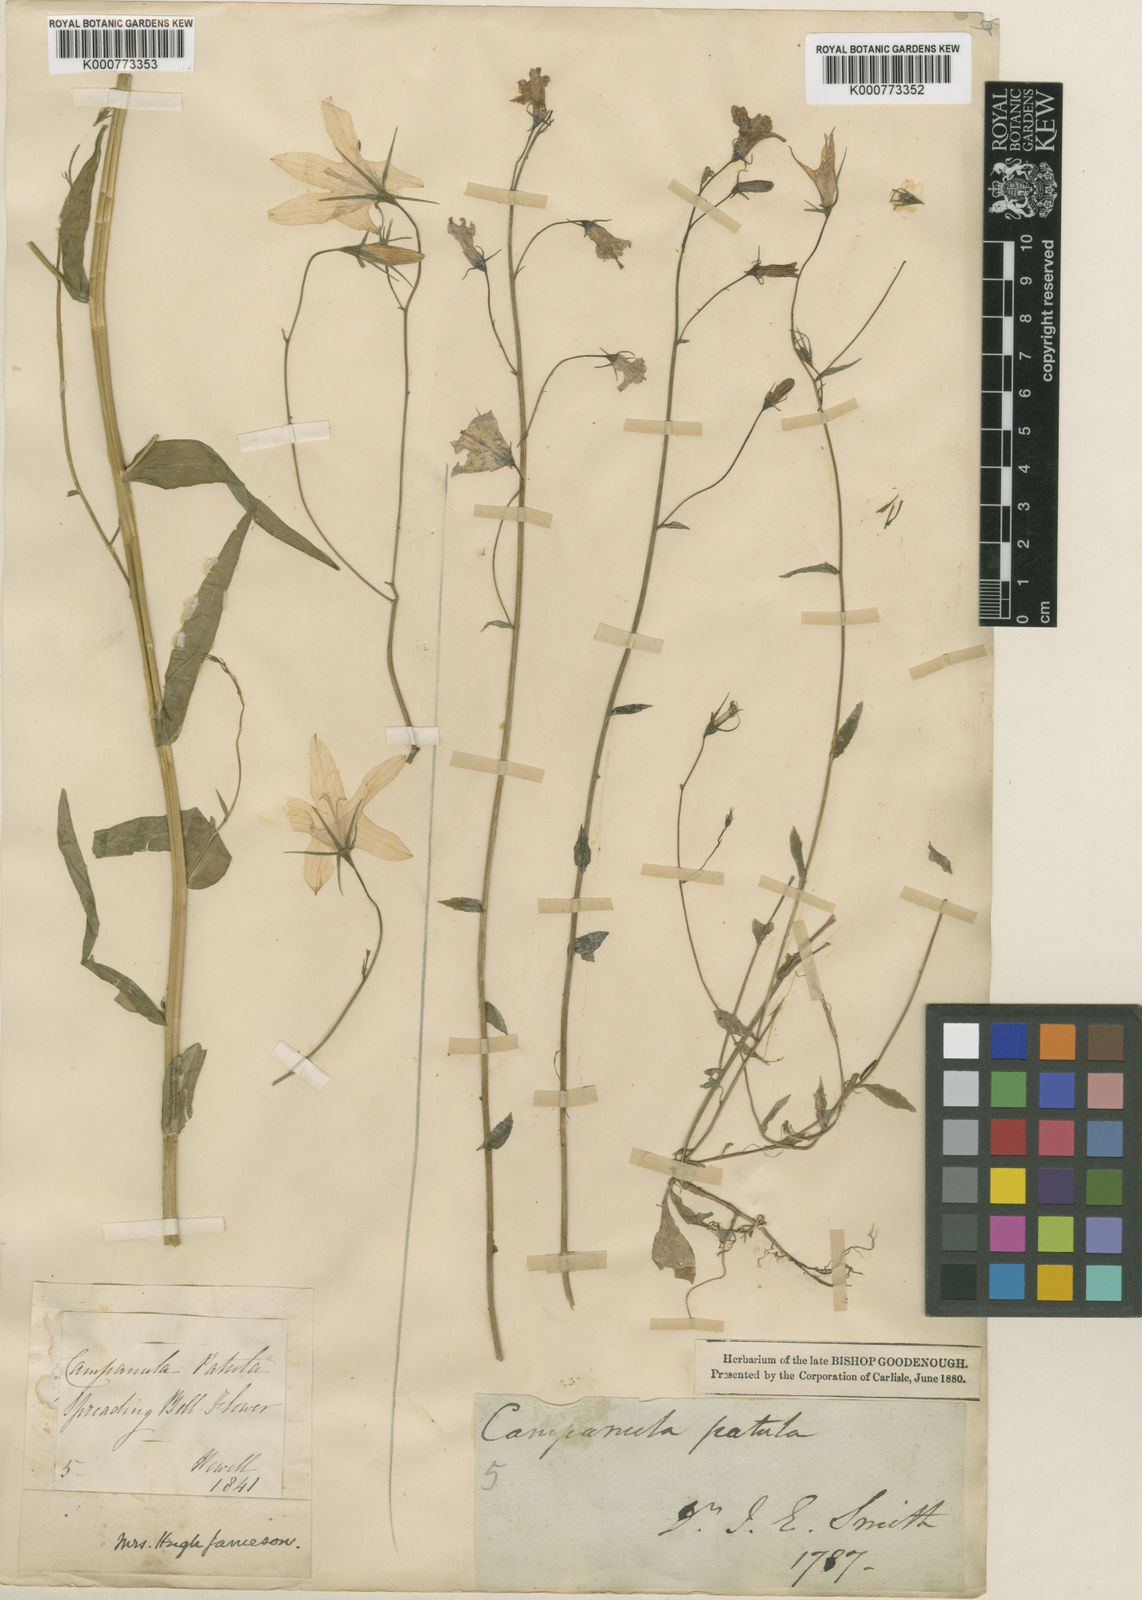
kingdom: Plantae
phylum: Tracheophyta
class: Magnoliopsida
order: Asterales
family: Campanulaceae
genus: Campanula
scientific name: Campanula patula
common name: Spreading bellflower
